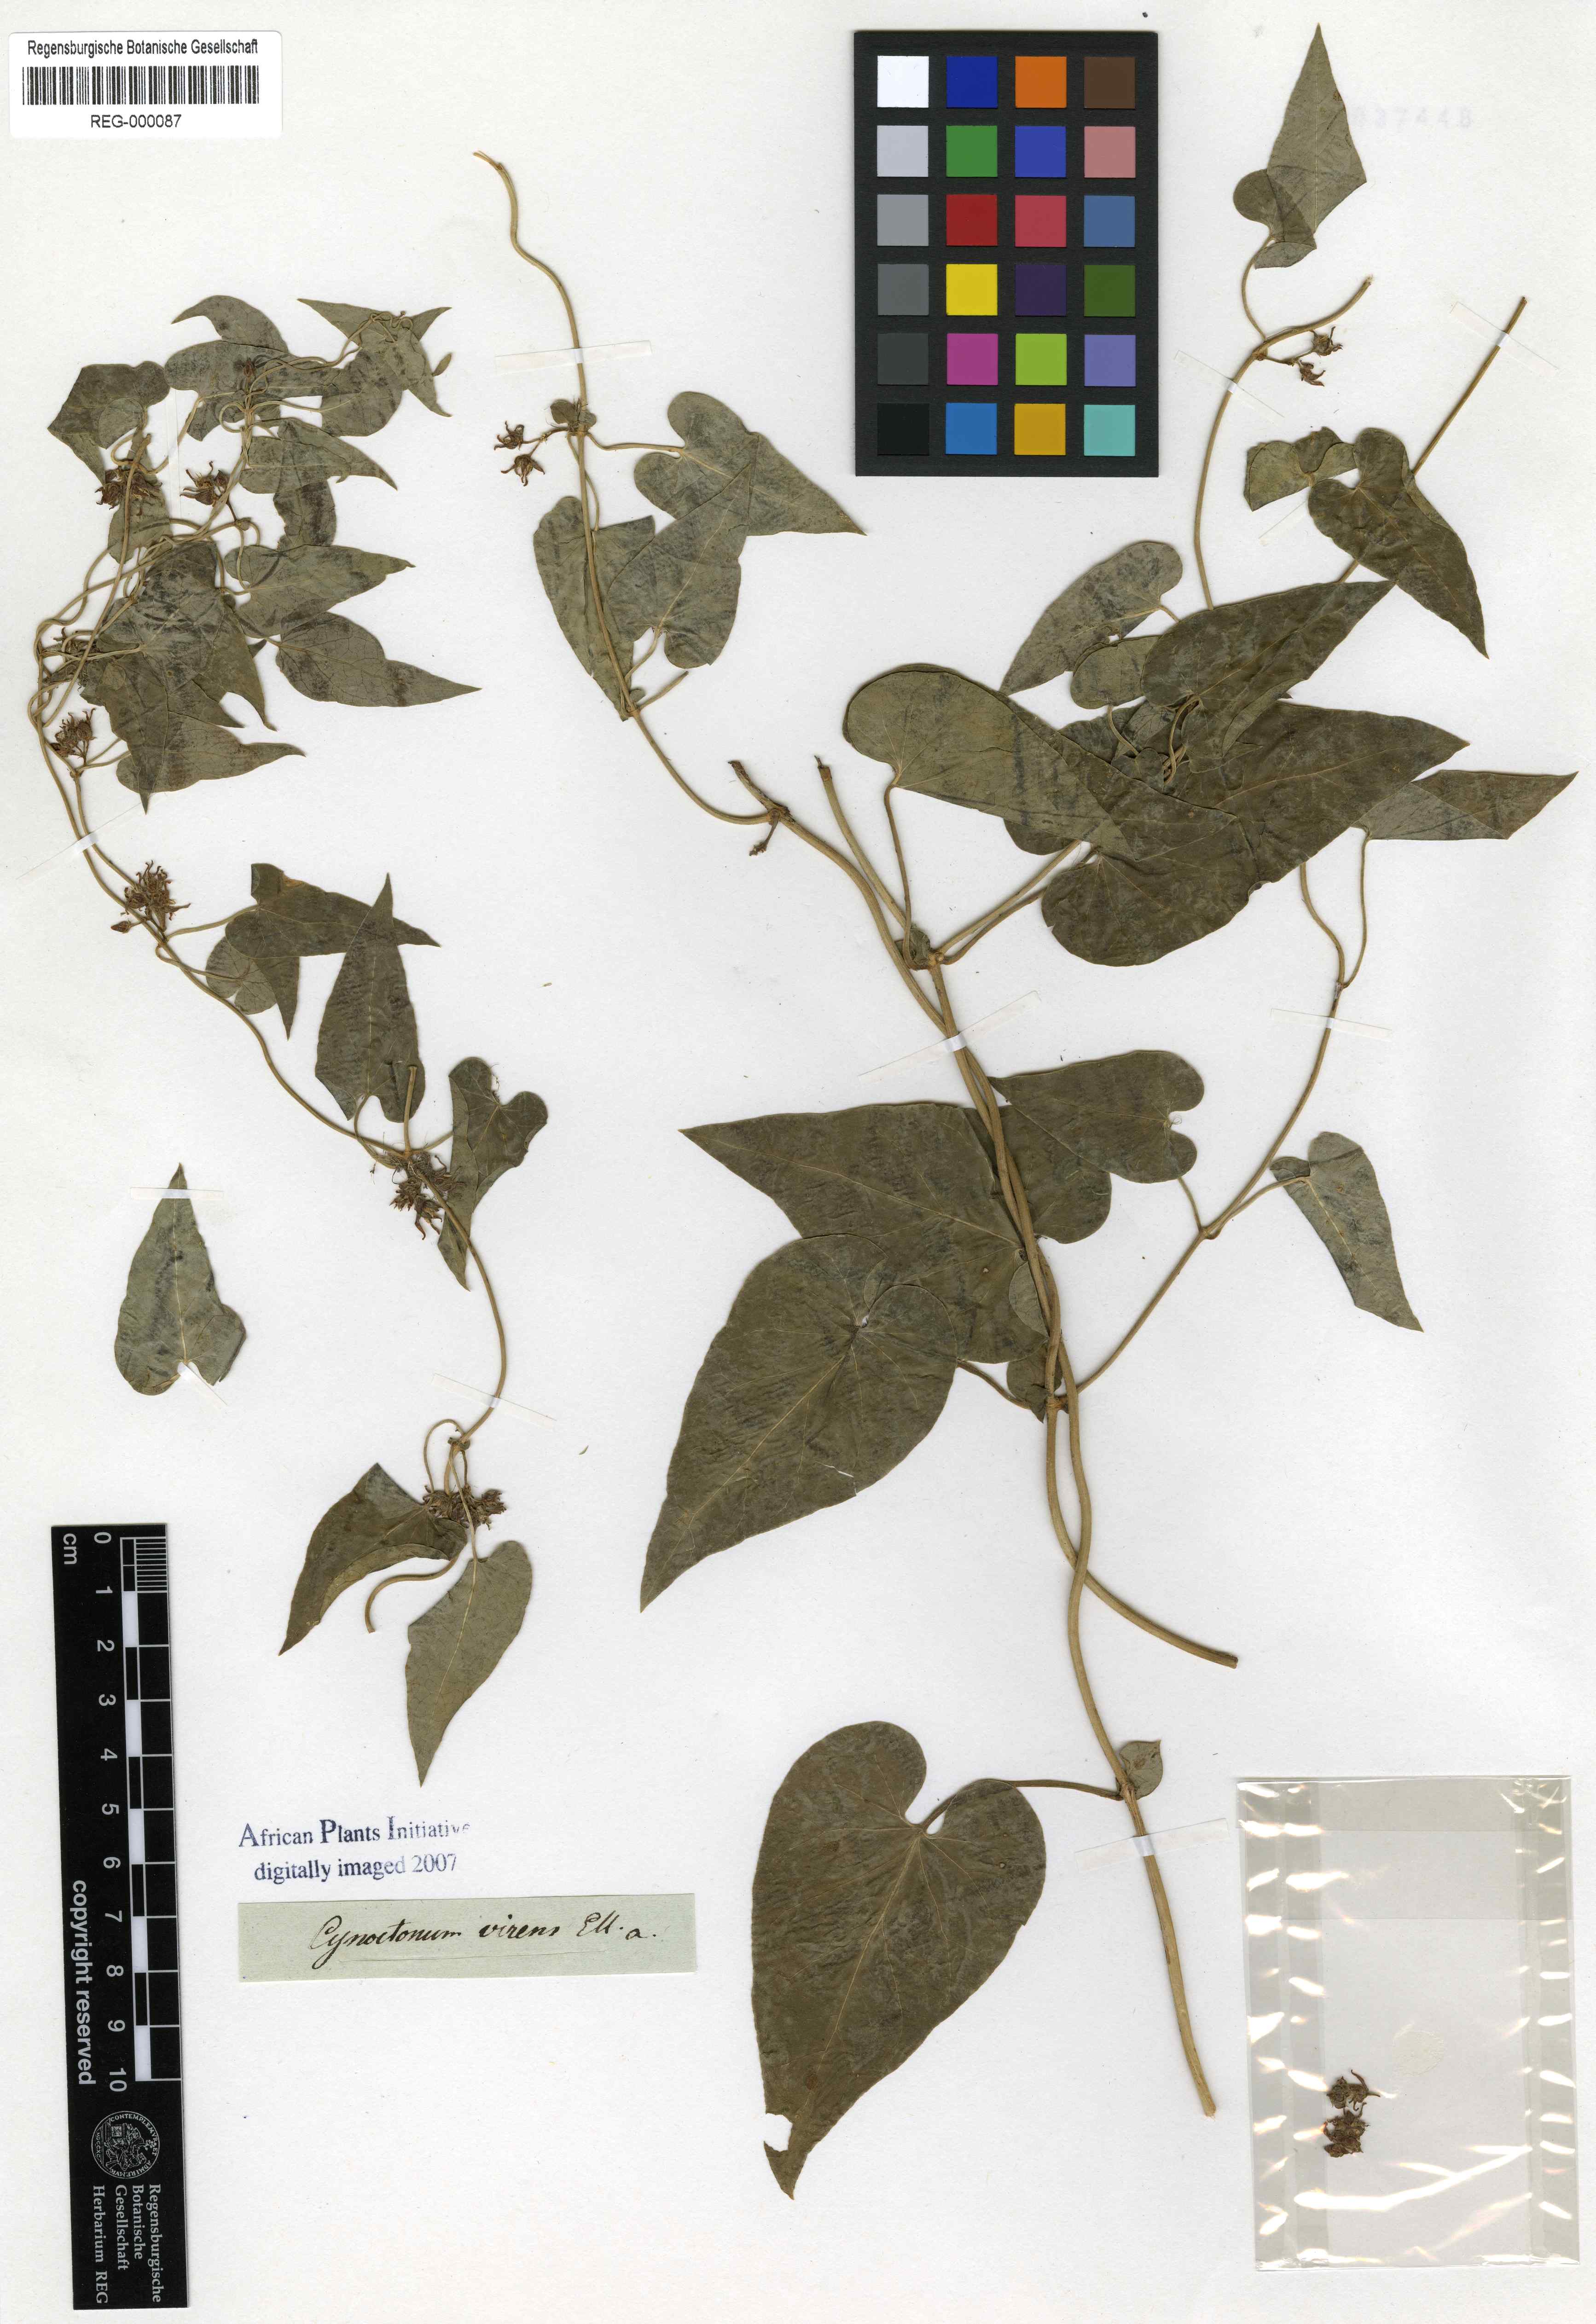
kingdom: Plantae
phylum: Tracheophyta
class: Magnoliopsida
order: Gentianales
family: Apocynaceae
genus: Cynanchum
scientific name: Cynanchum virens
